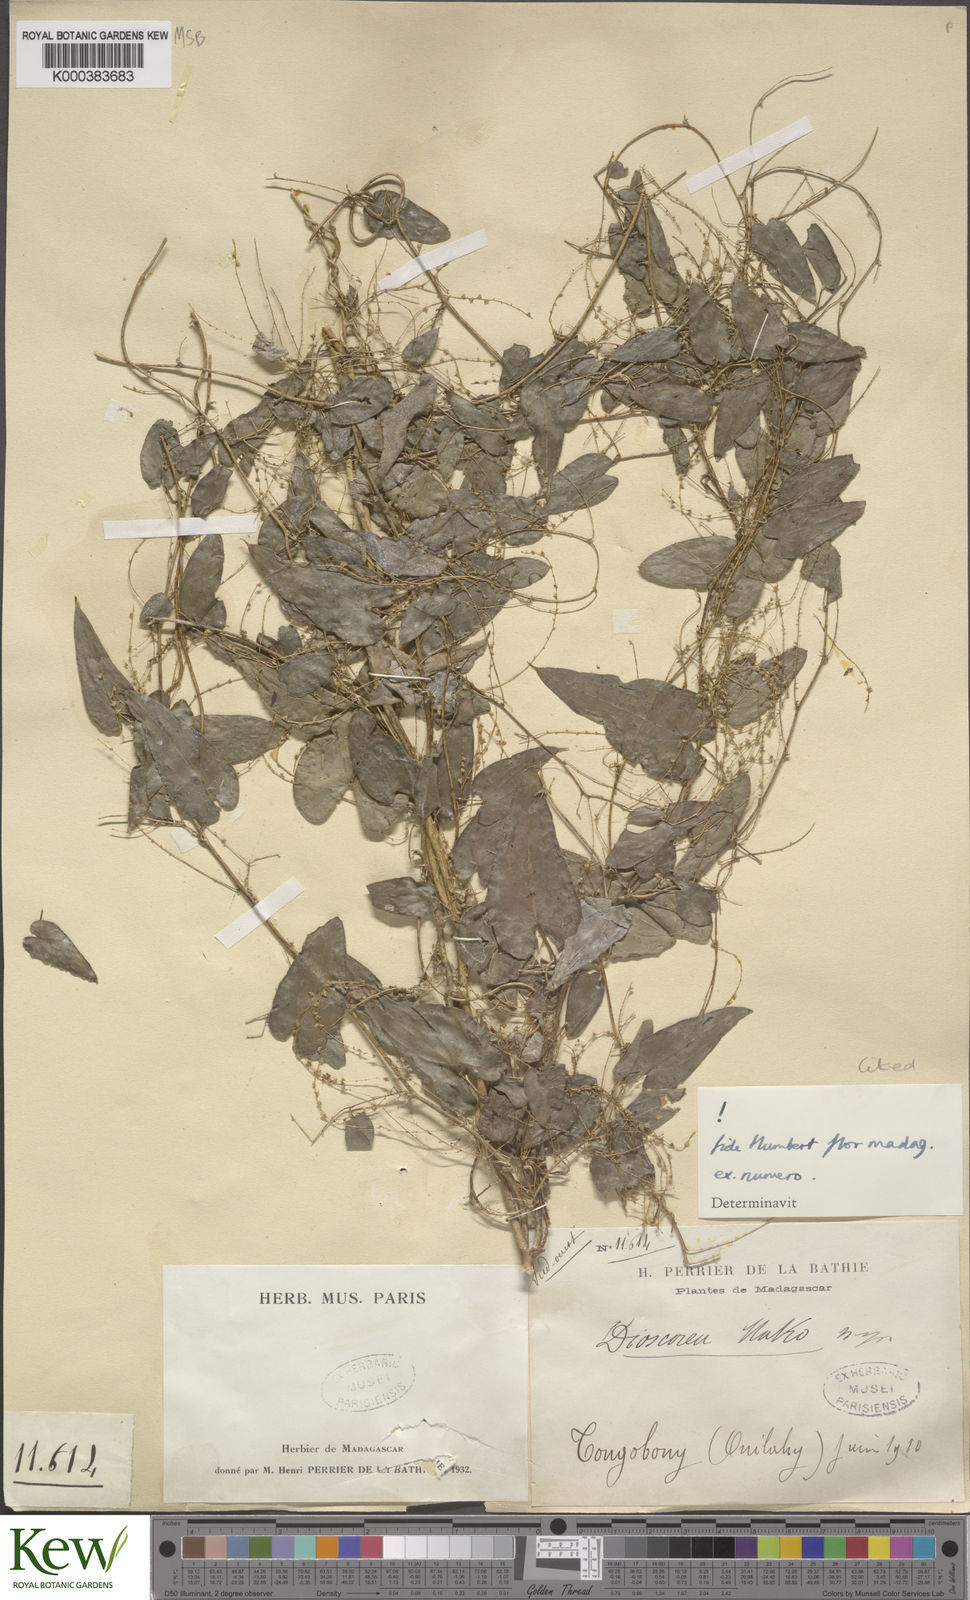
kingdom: Plantae
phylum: Tracheophyta
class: Liliopsida
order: Dioscoreales
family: Dioscoreaceae
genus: Dioscorea
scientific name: Dioscorea
